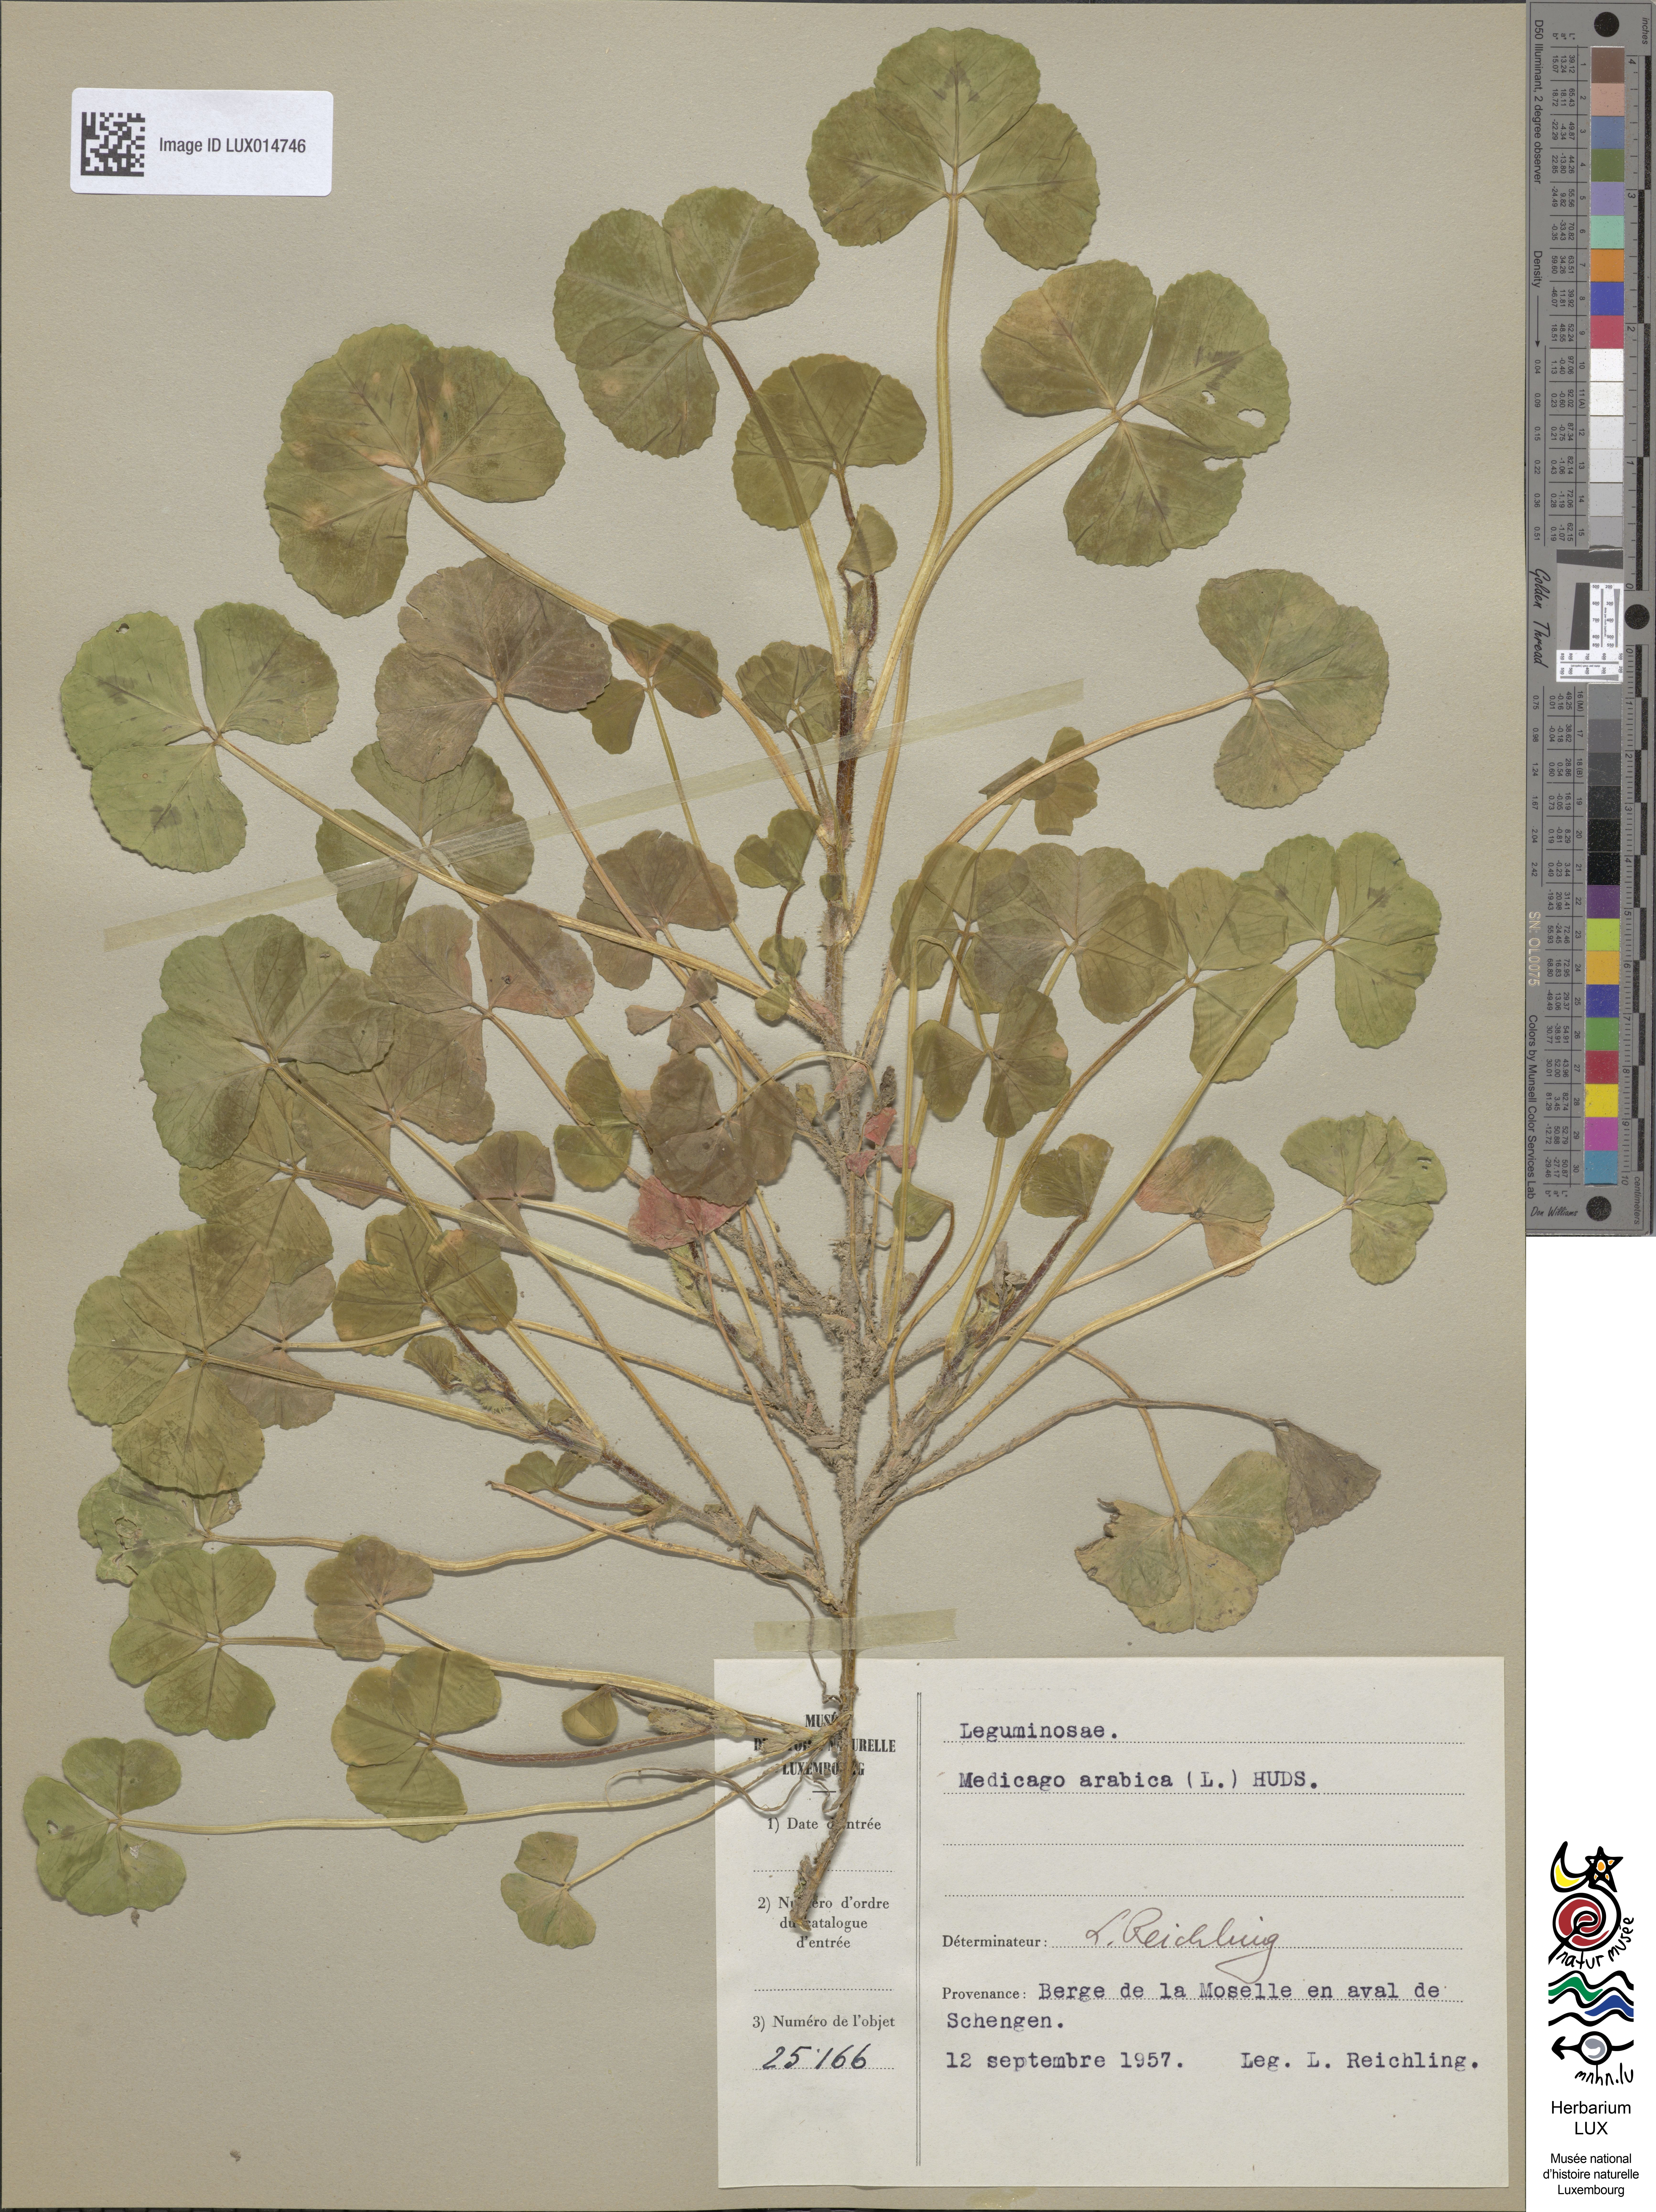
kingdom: Plantae
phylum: Tracheophyta
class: Magnoliopsida
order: Fabales
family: Fabaceae
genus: Medicago
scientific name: Medicago arabica
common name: Spotted medick
